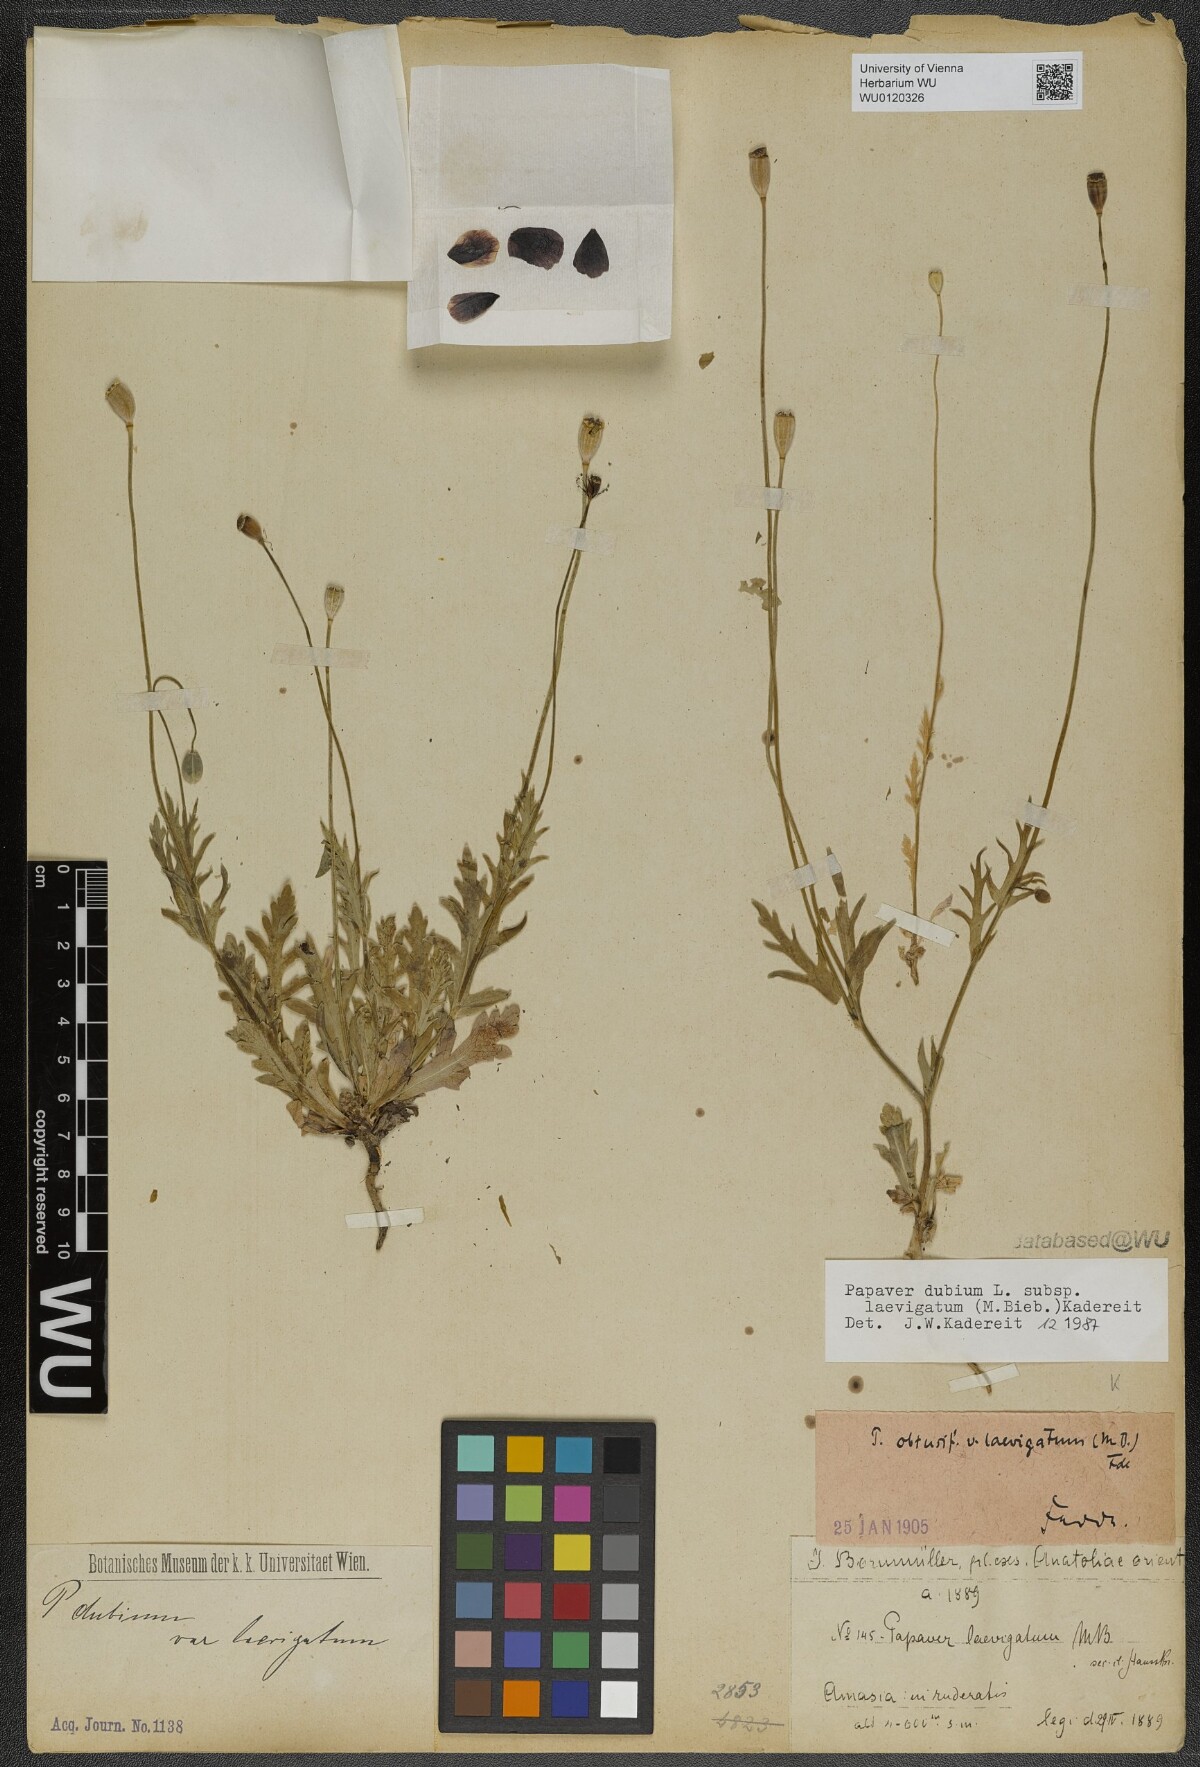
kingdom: Plantae
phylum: Tracheophyta
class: Magnoliopsida
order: Ranunculales
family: Papaveraceae
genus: Papaver
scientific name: Papaver laevigatum
